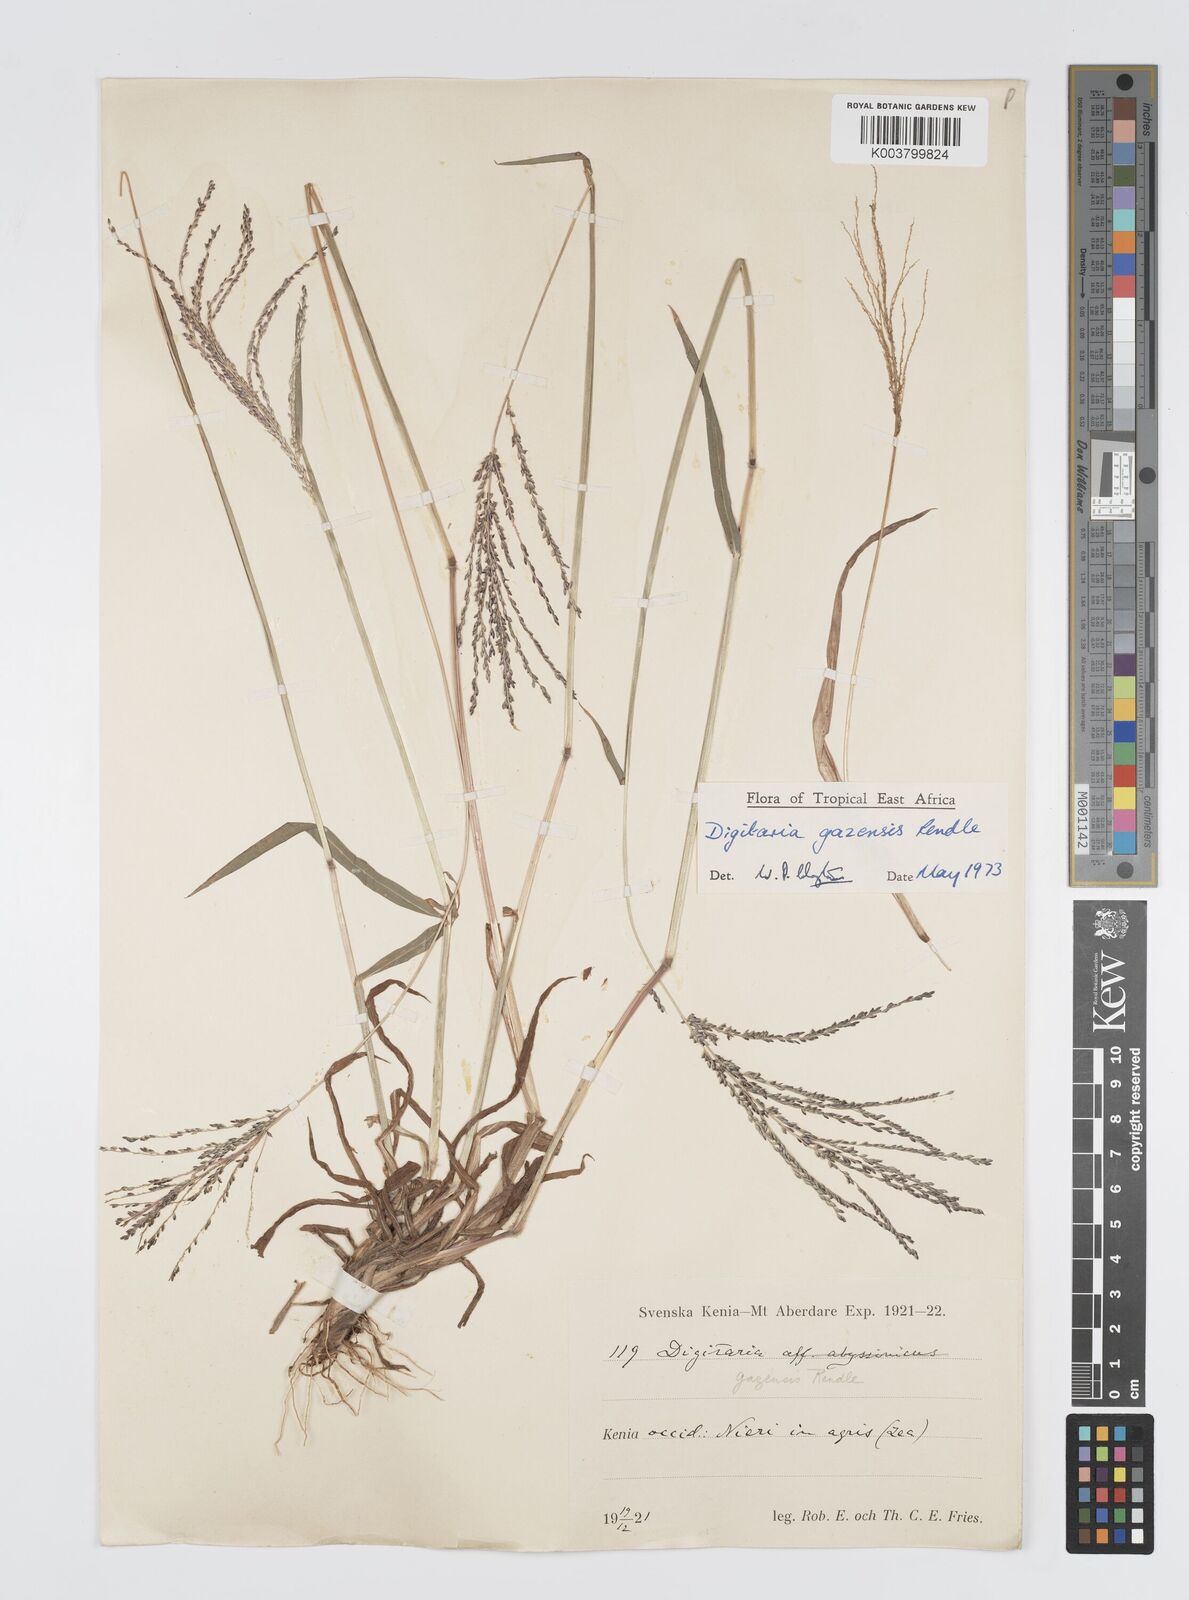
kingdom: Plantae
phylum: Tracheophyta
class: Liliopsida
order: Poales
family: Poaceae
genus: Digitaria
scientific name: Digitaria gazensis
